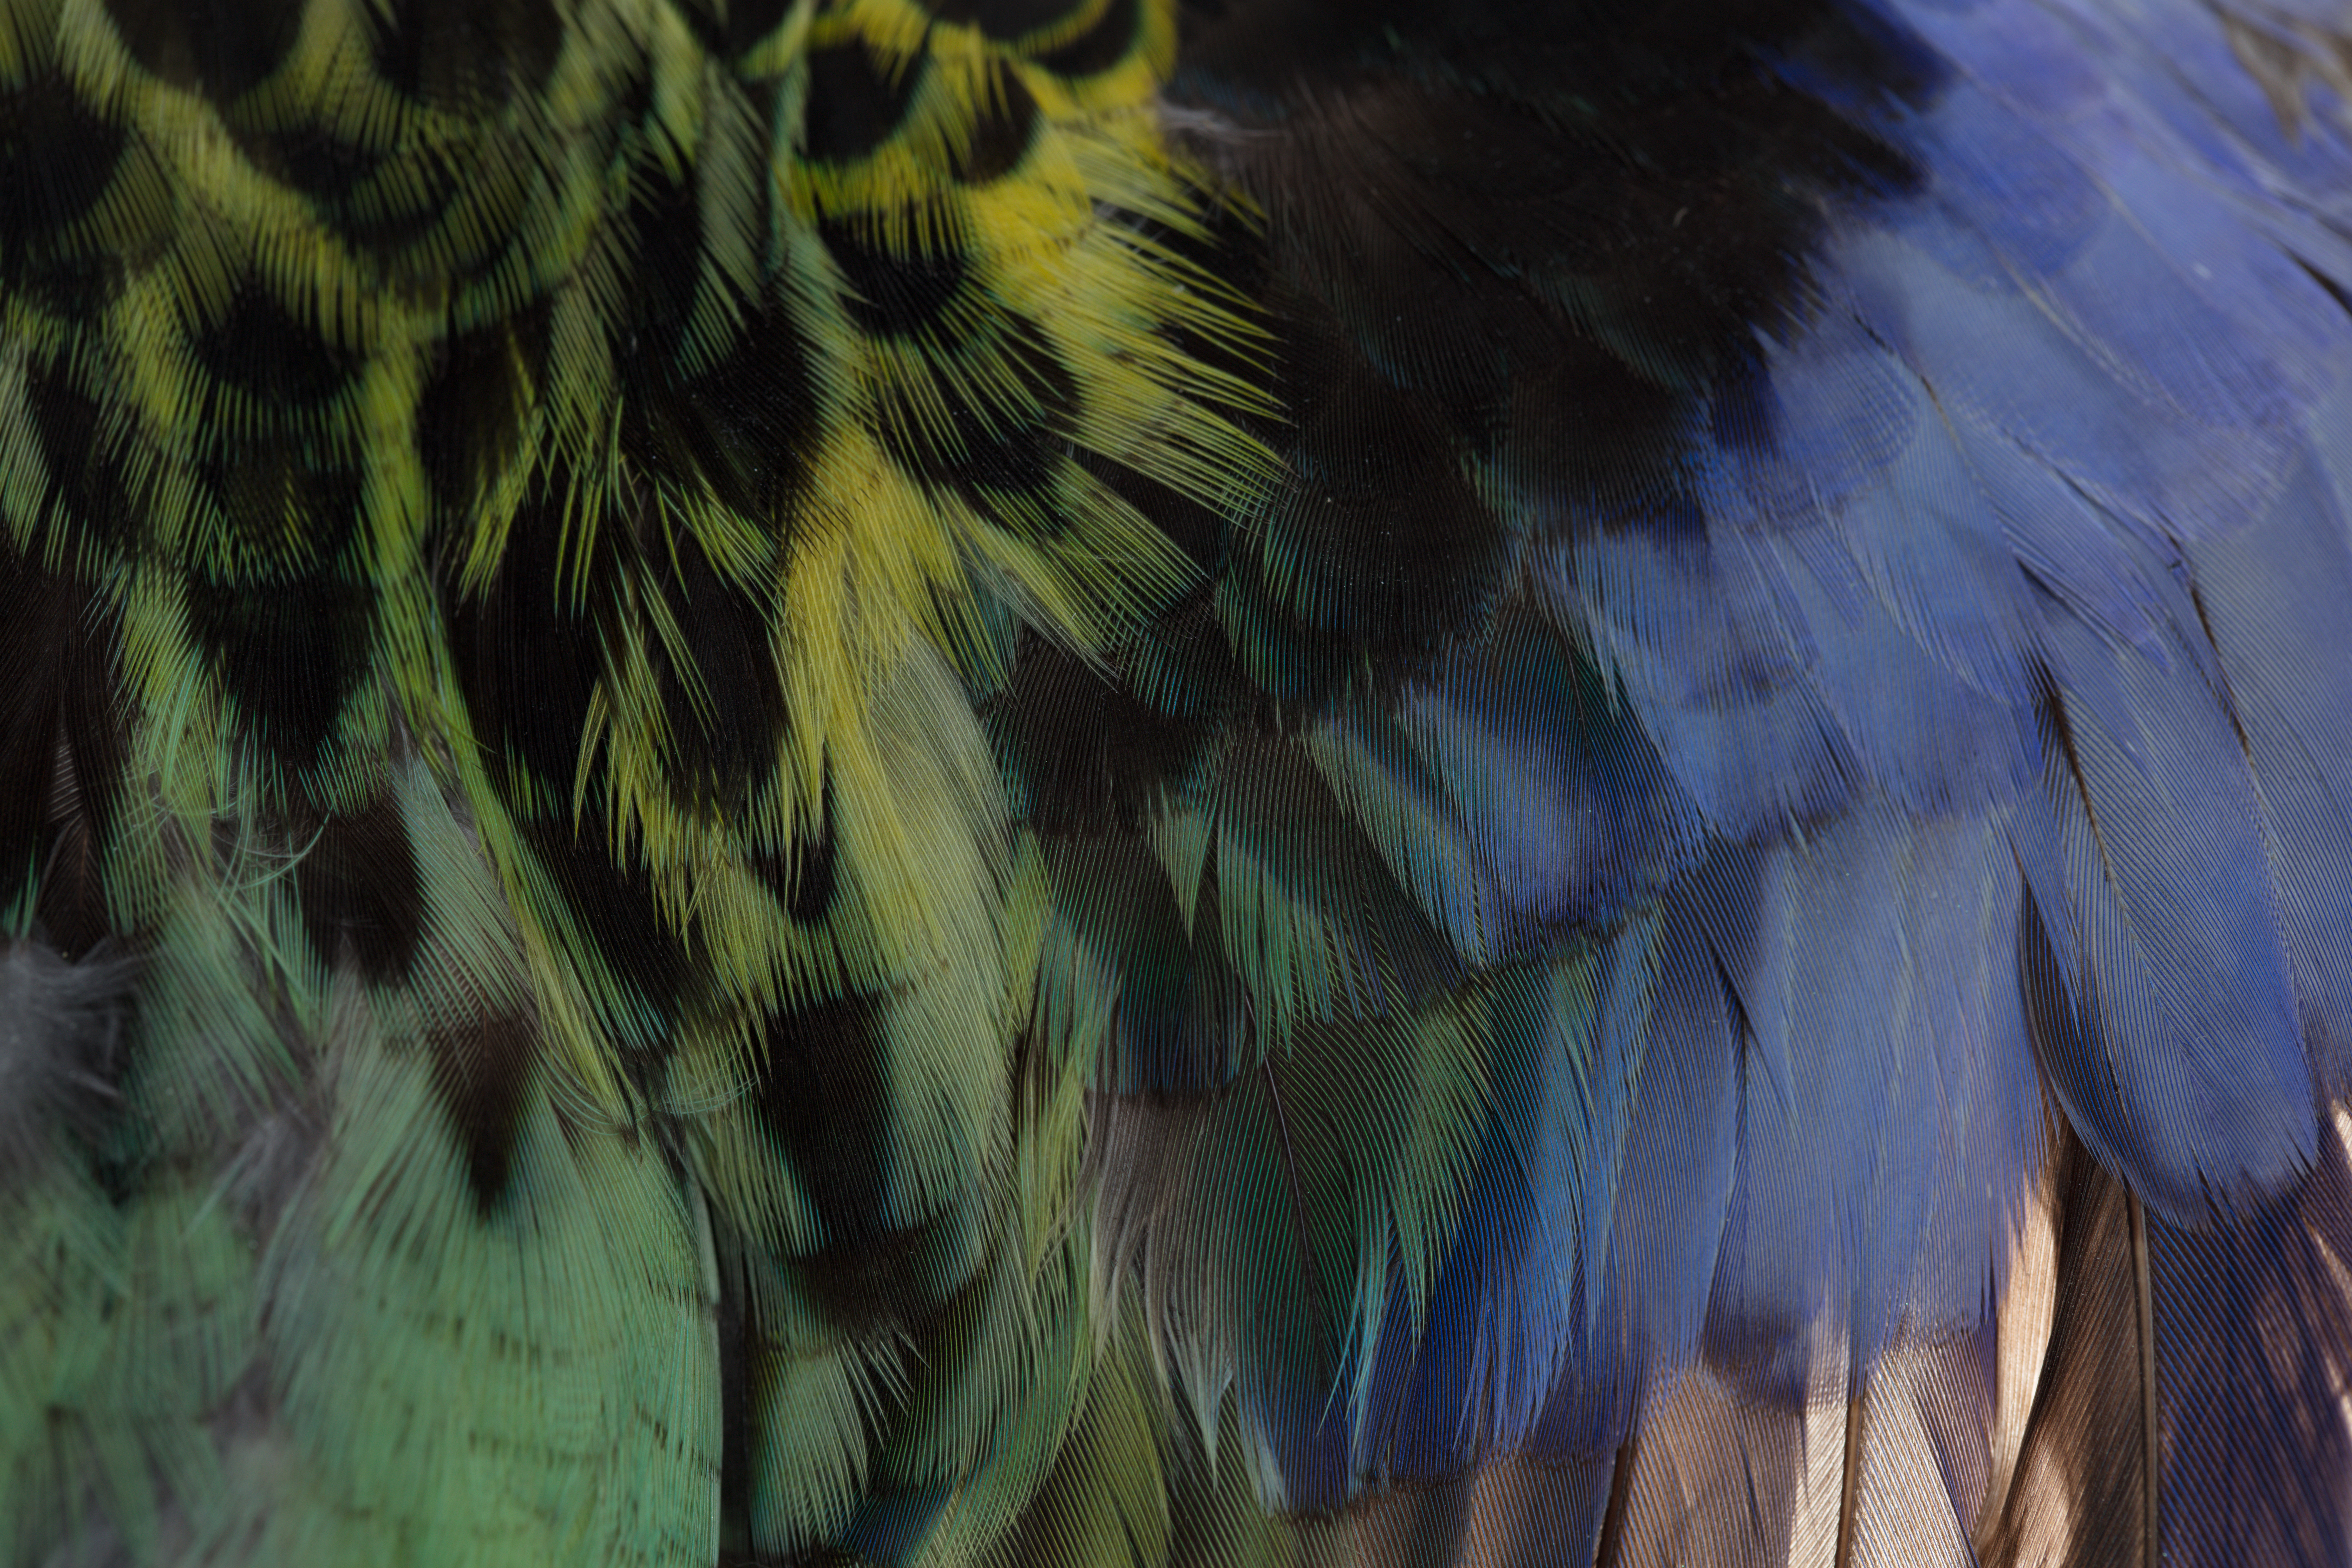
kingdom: Animalia
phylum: Chordata
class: Aves
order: Psittaciformes
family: Psittacidae
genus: Platycercus
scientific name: Platycercus eximius
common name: Eastern rosella
